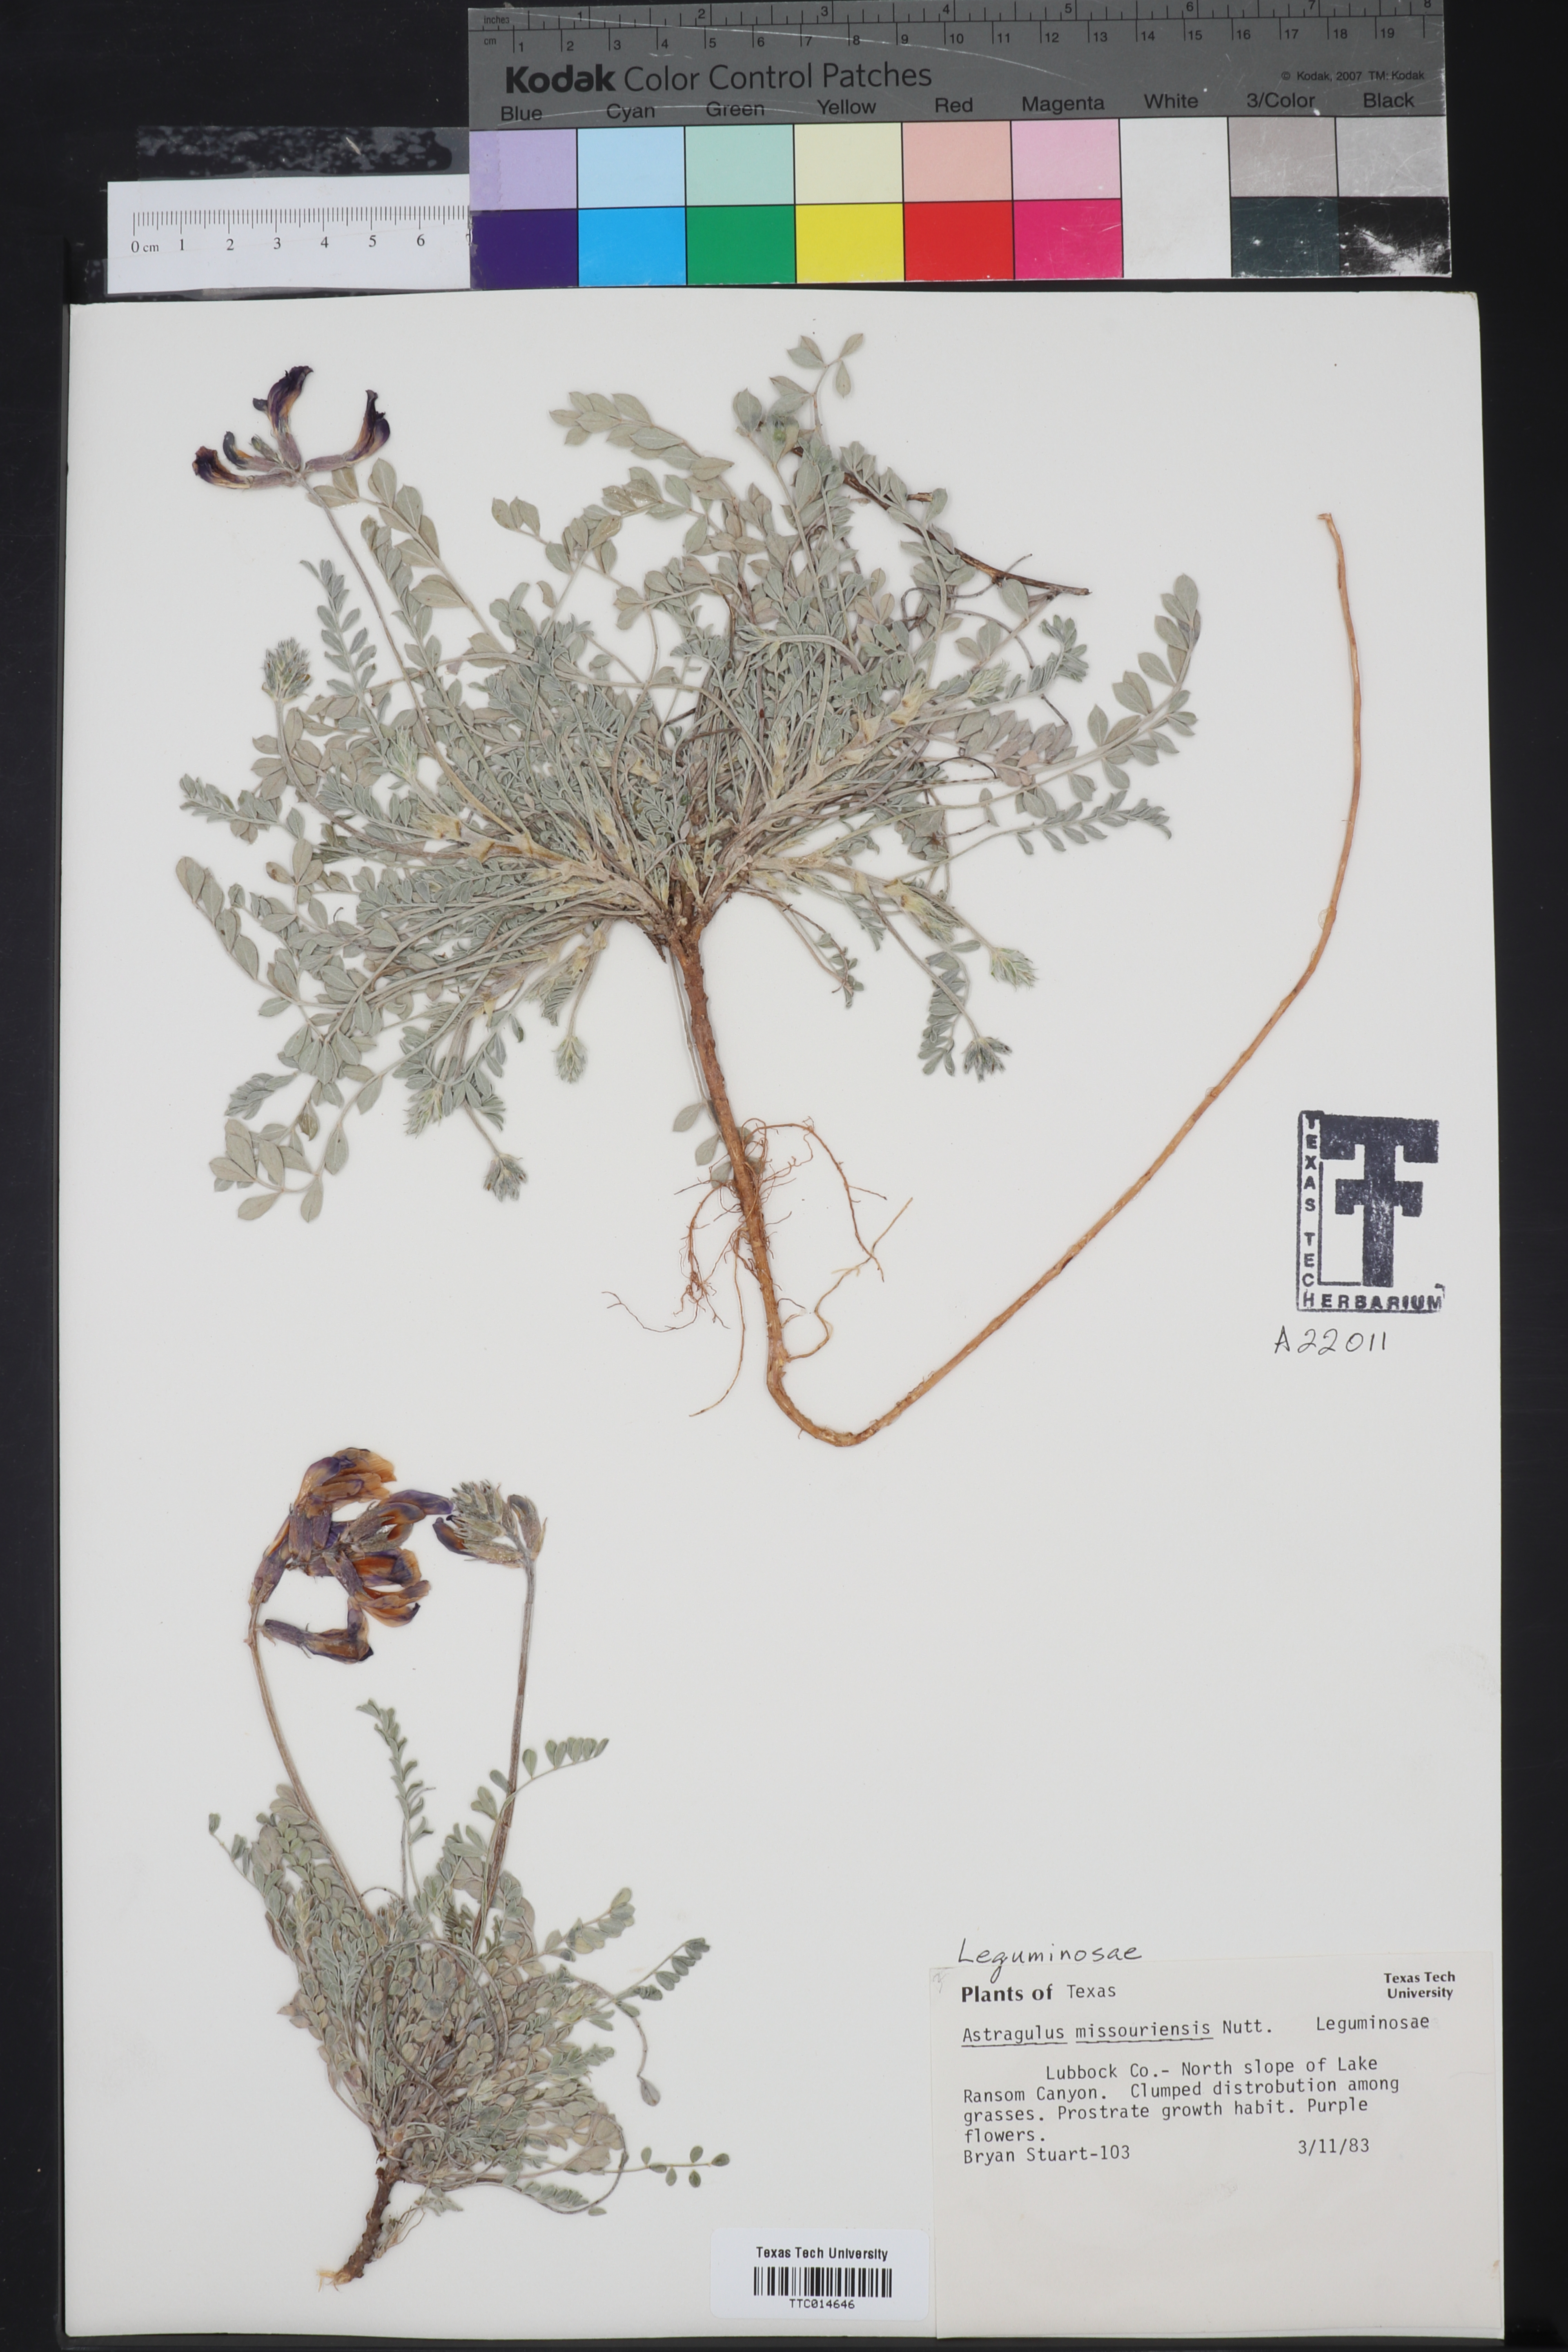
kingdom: Plantae
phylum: Tracheophyta
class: Magnoliopsida
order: Fabales
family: Fabaceae
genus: Astragalus
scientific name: Astragalus missouriensis
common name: Missouri milk-vetch
